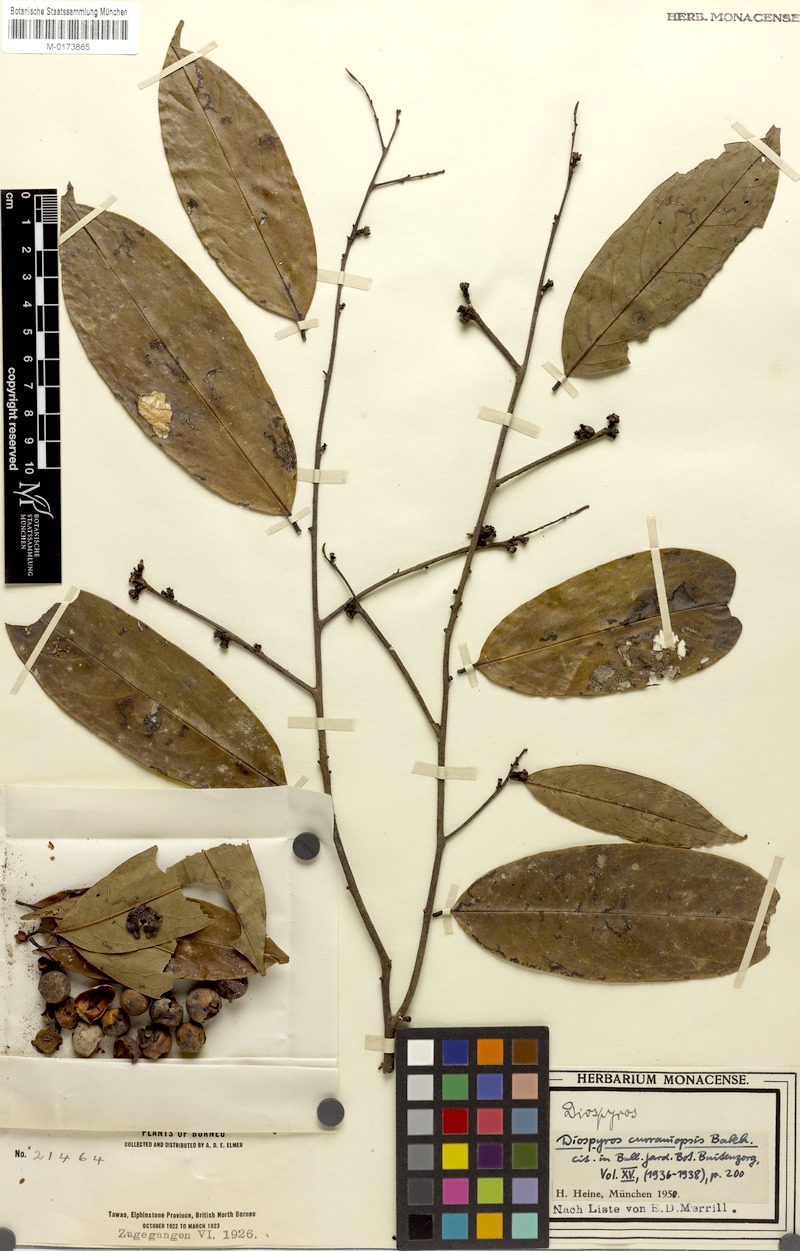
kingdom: Plantae
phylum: Tracheophyta
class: Magnoliopsida
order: Ericales
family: Ebenaceae
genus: Diospyros
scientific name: Diospyros curranii
